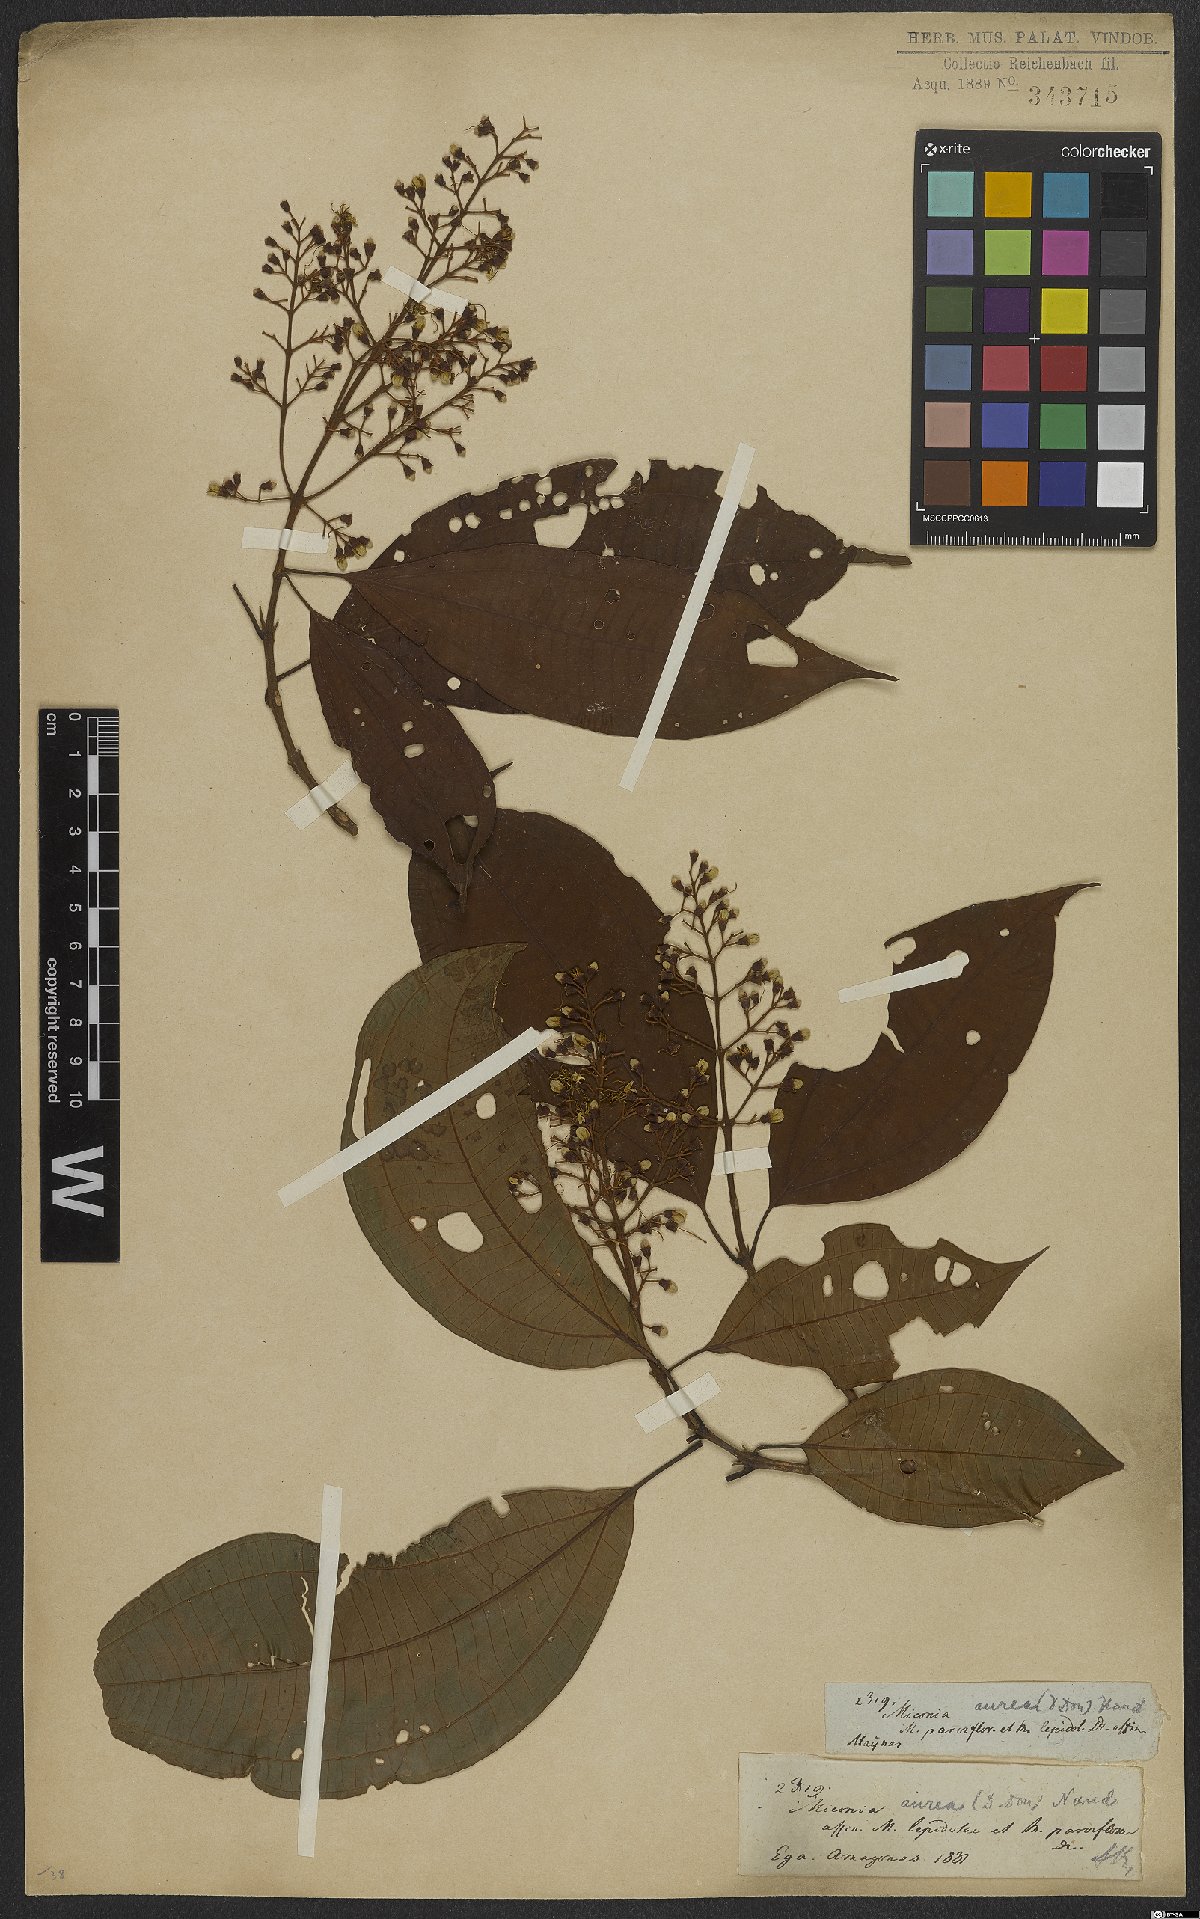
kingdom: Plantae
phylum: Tracheophyta
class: Magnoliopsida
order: Myrtales
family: Melastomataceae
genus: Miconia
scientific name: Miconia aurea
